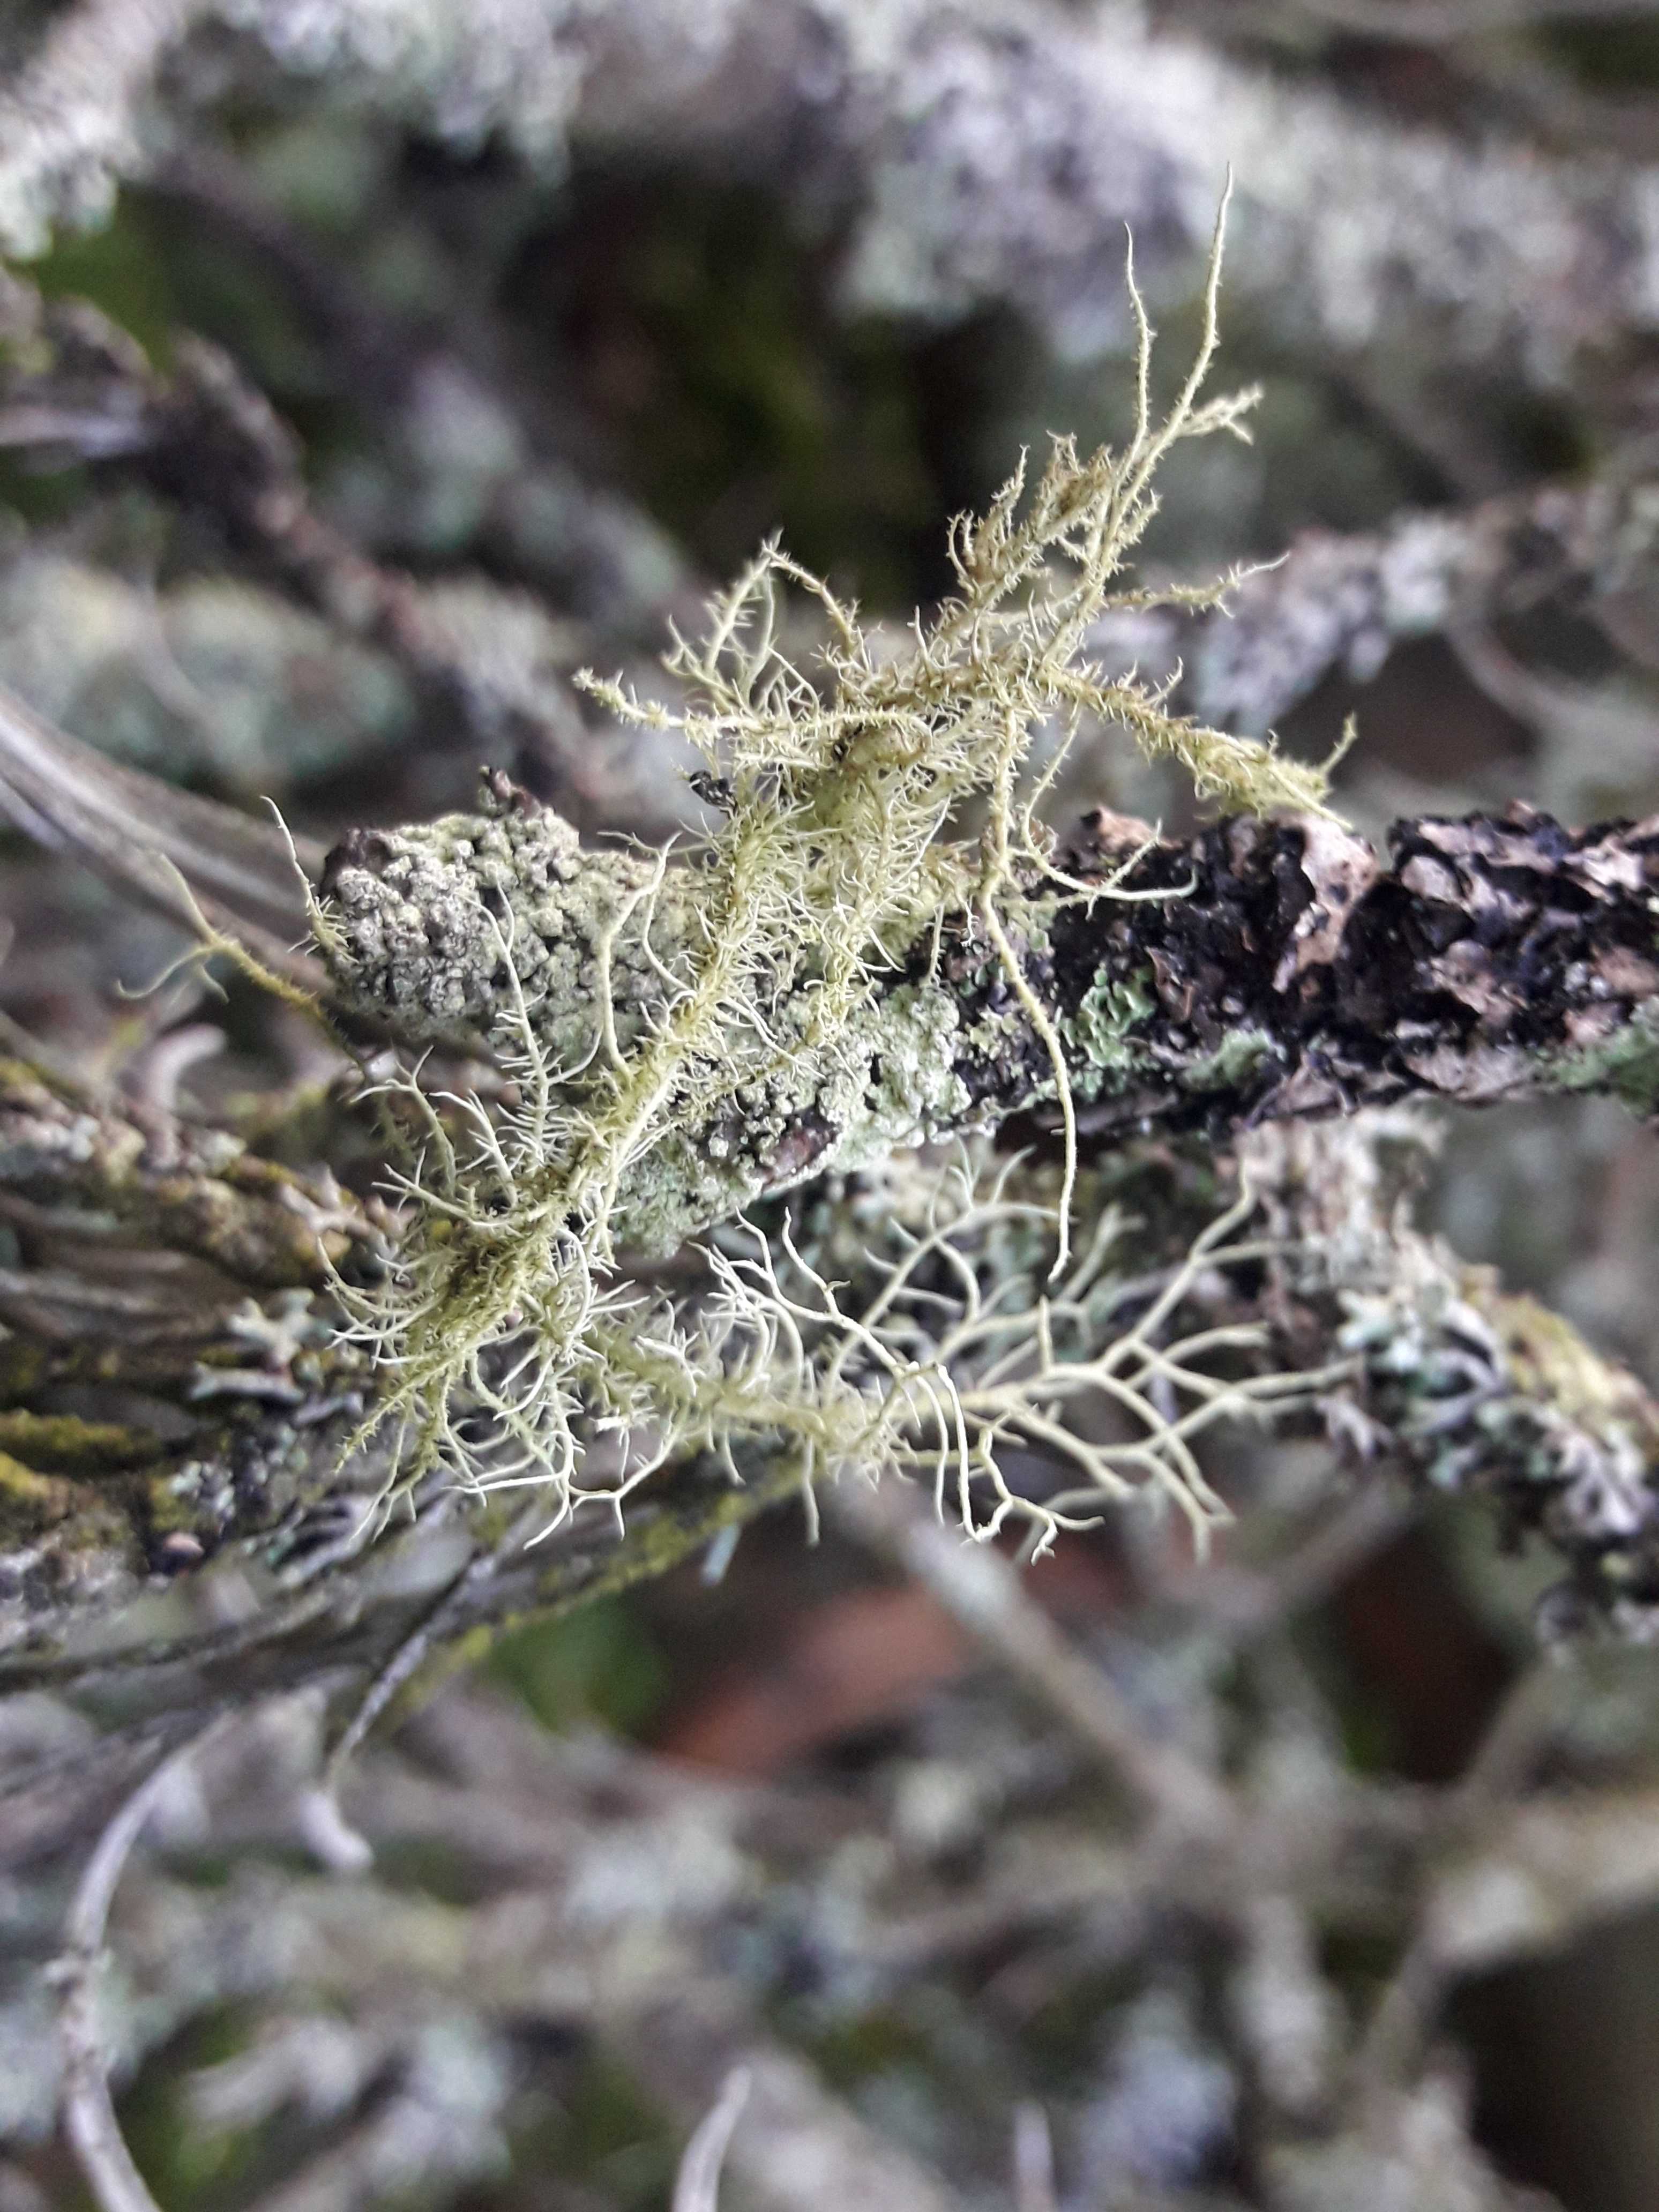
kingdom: Fungi
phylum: Ascomycota
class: Lecanoromycetes
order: Lecanorales
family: Parmeliaceae
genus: Usnea
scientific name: Usnea hirta
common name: liden skæglav
